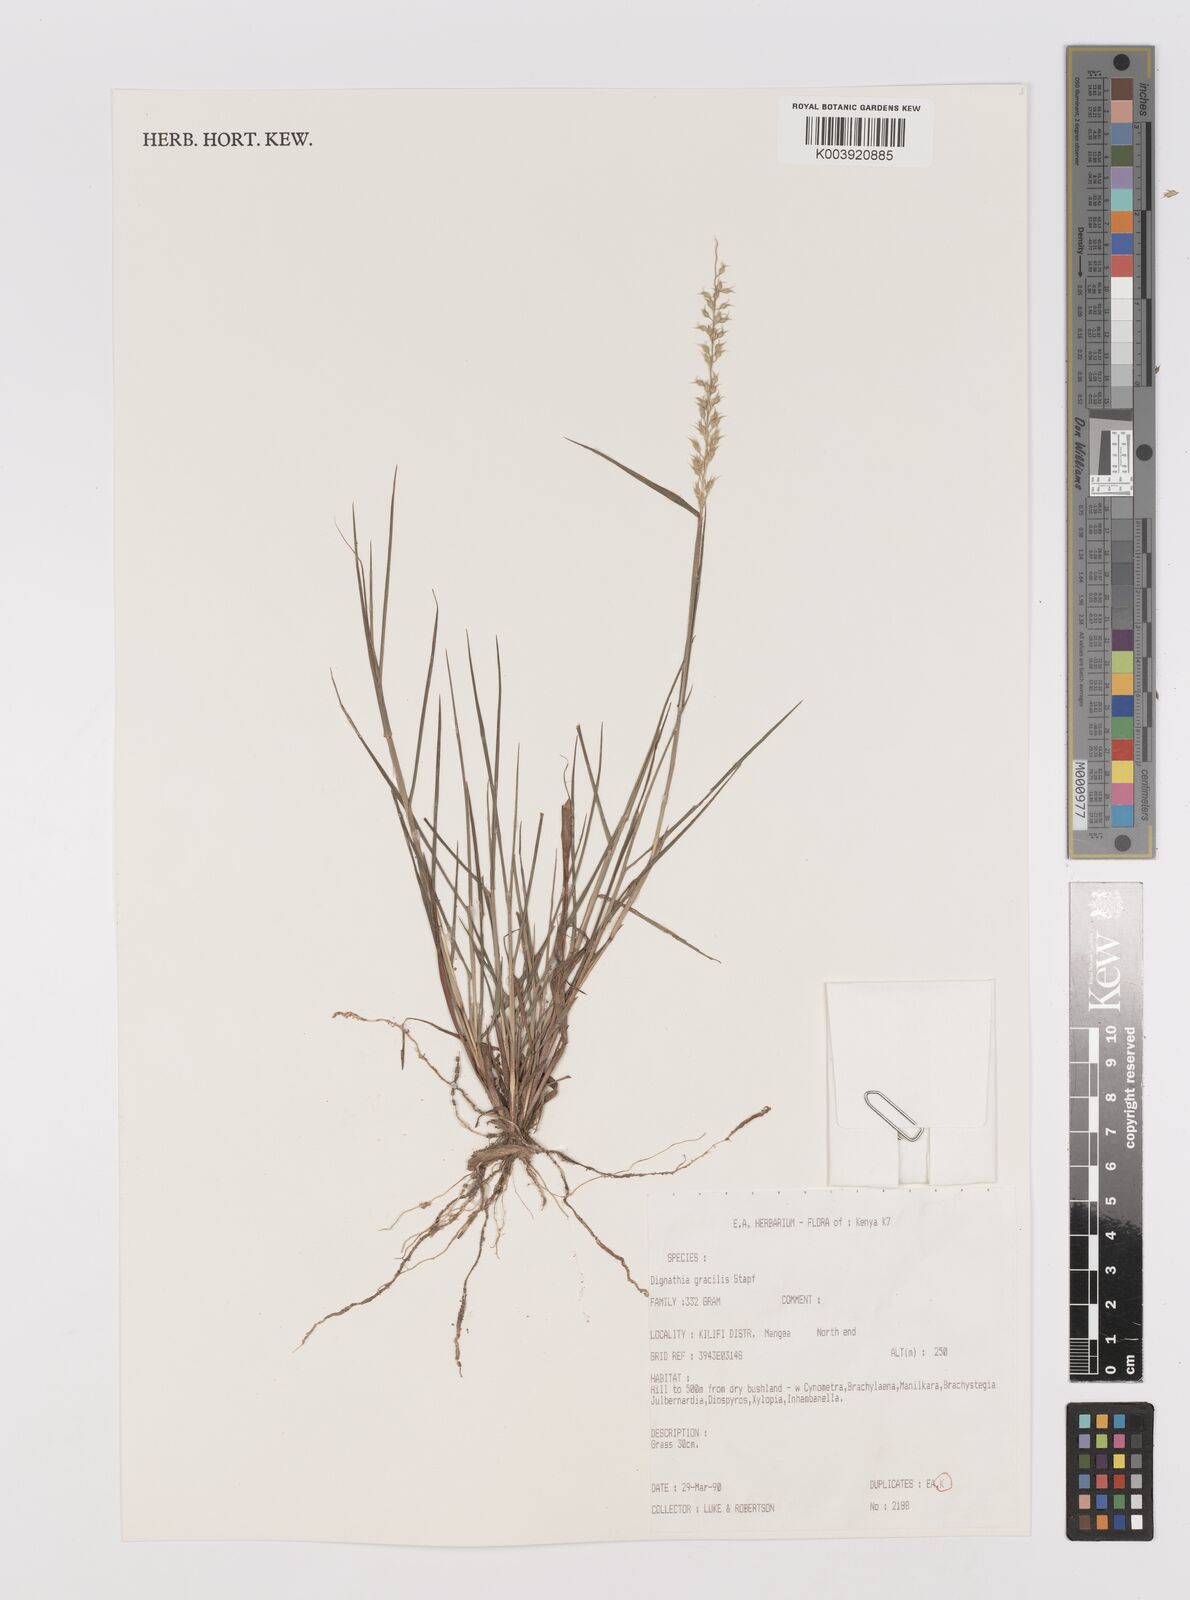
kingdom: Plantae
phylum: Tracheophyta
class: Liliopsida
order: Poales
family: Poaceae
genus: Dignathia
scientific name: Dignathia gracilis
